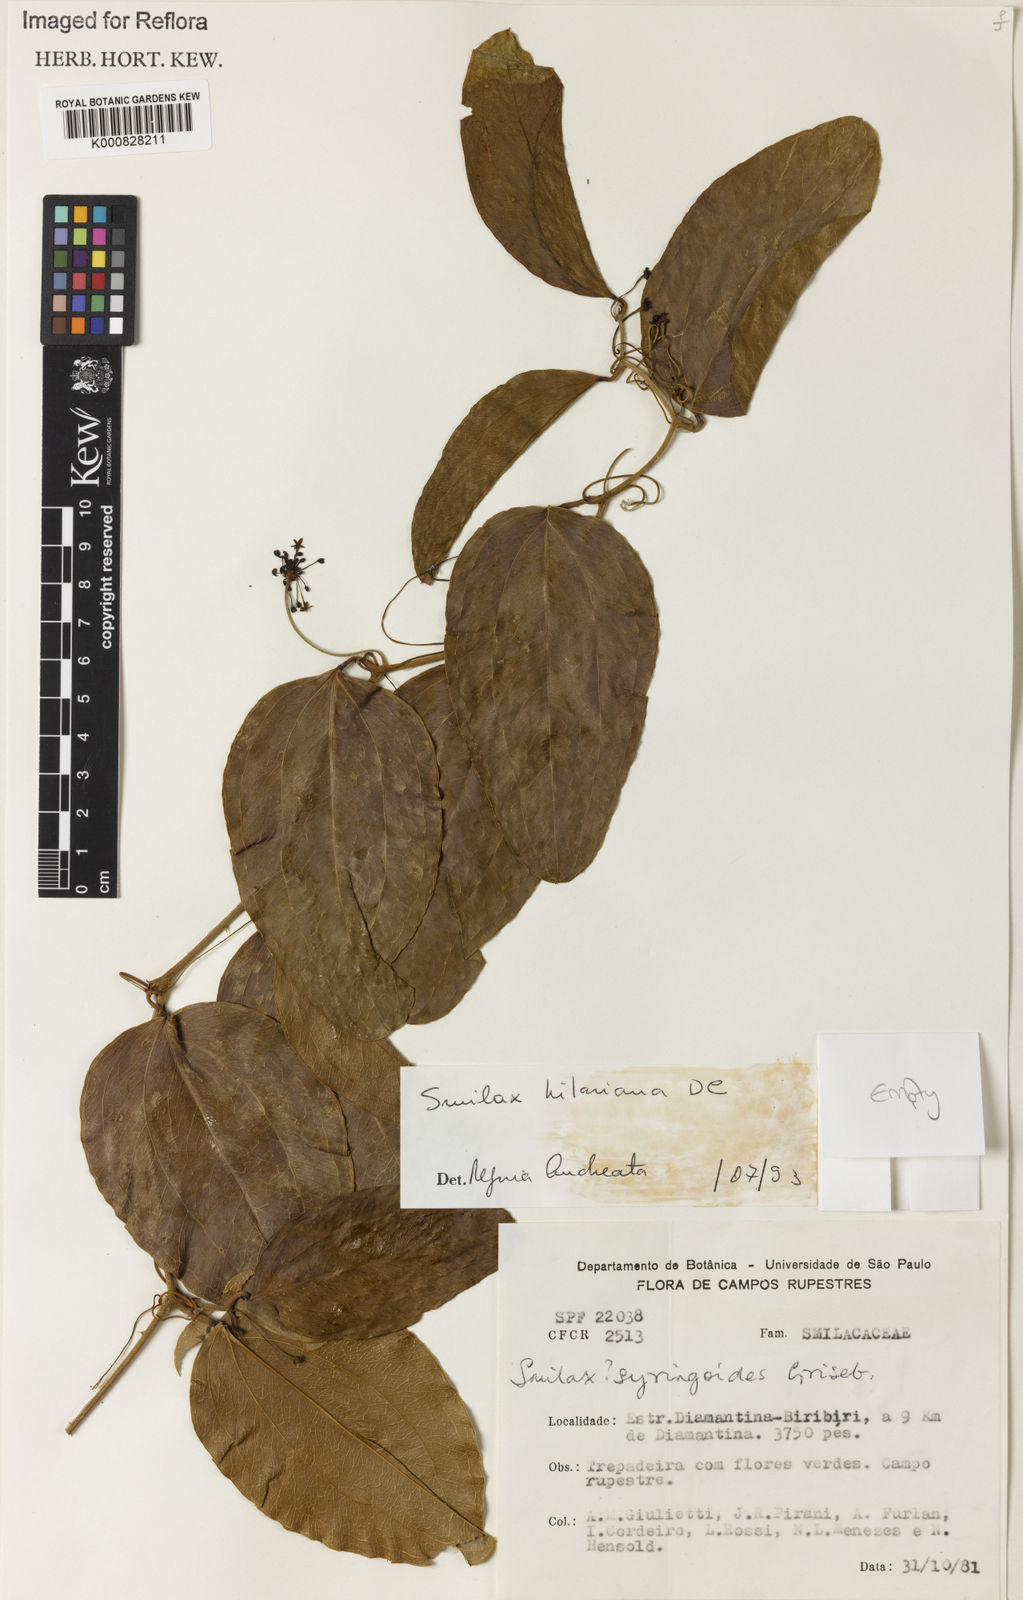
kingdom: Plantae
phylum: Tracheophyta
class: Liliopsida
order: Liliales
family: Smilacaceae
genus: Smilax
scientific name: Smilax hilariana
